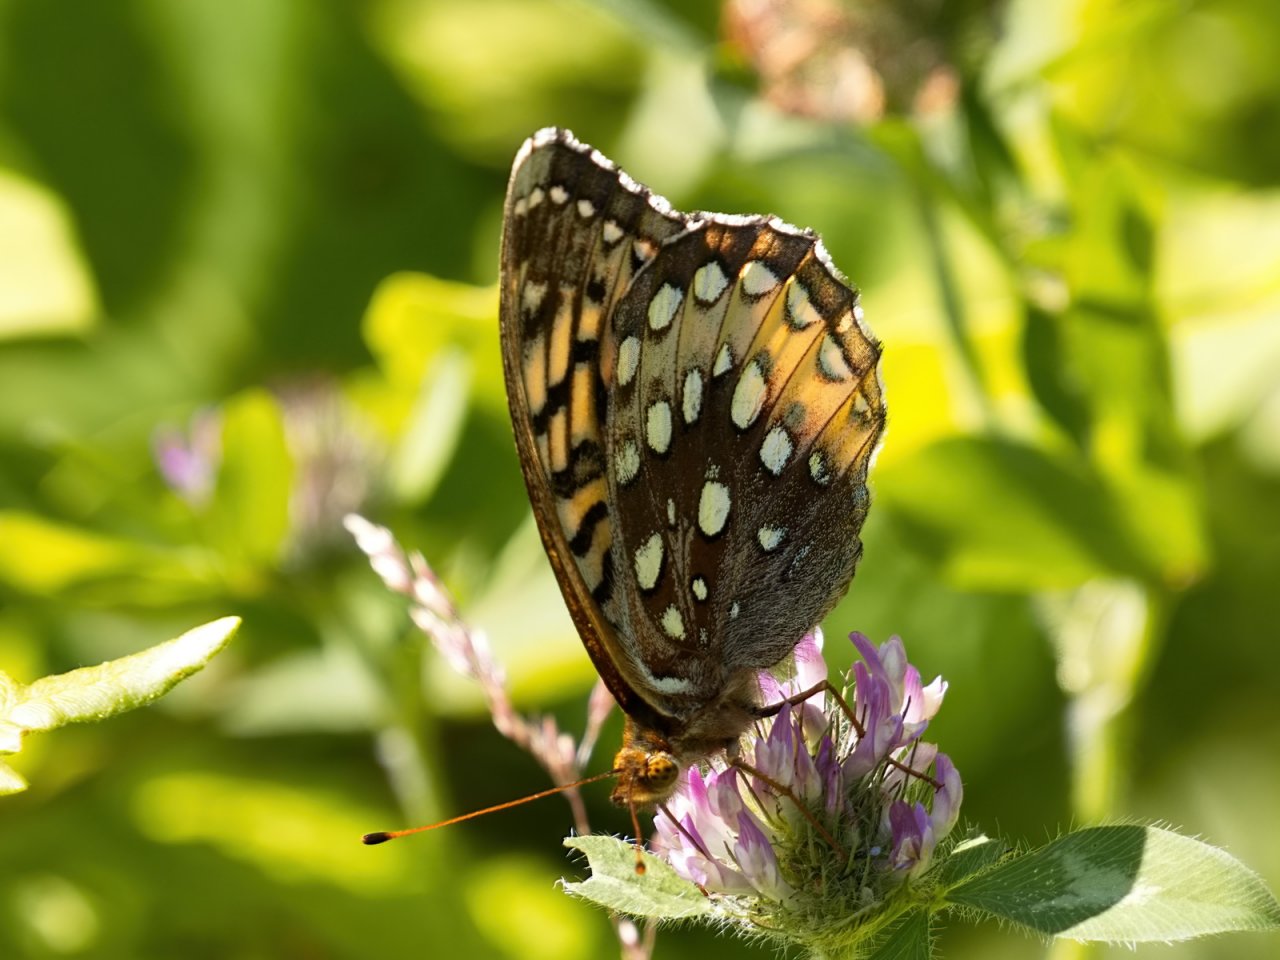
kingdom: Animalia
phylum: Arthropoda
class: Insecta
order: Lepidoptera
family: Nymphalidae
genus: Speyeria
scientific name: Speyeria cybele
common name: Great Spangled Fritillary
